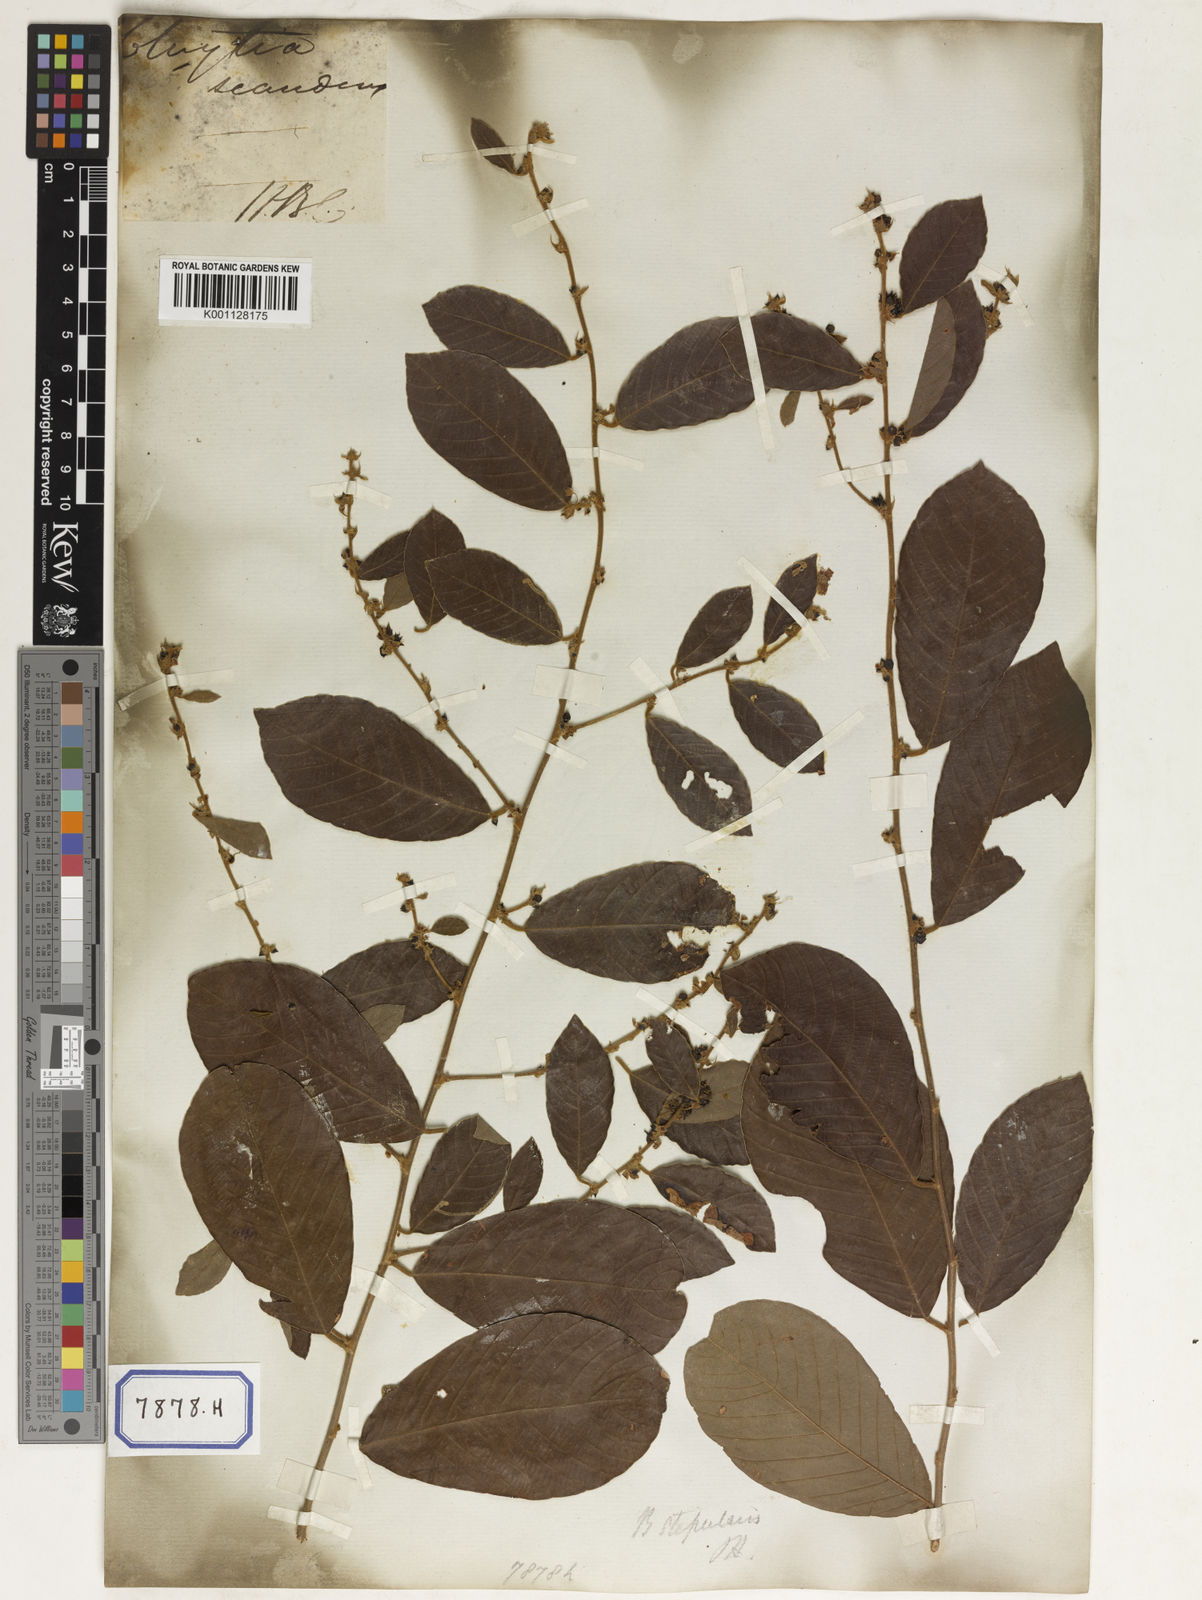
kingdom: Plantae
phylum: Tracheophyta
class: Magnoliopsida
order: Malpighiales
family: Phyllanthaceae
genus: Bridelia
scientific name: Bridelia
